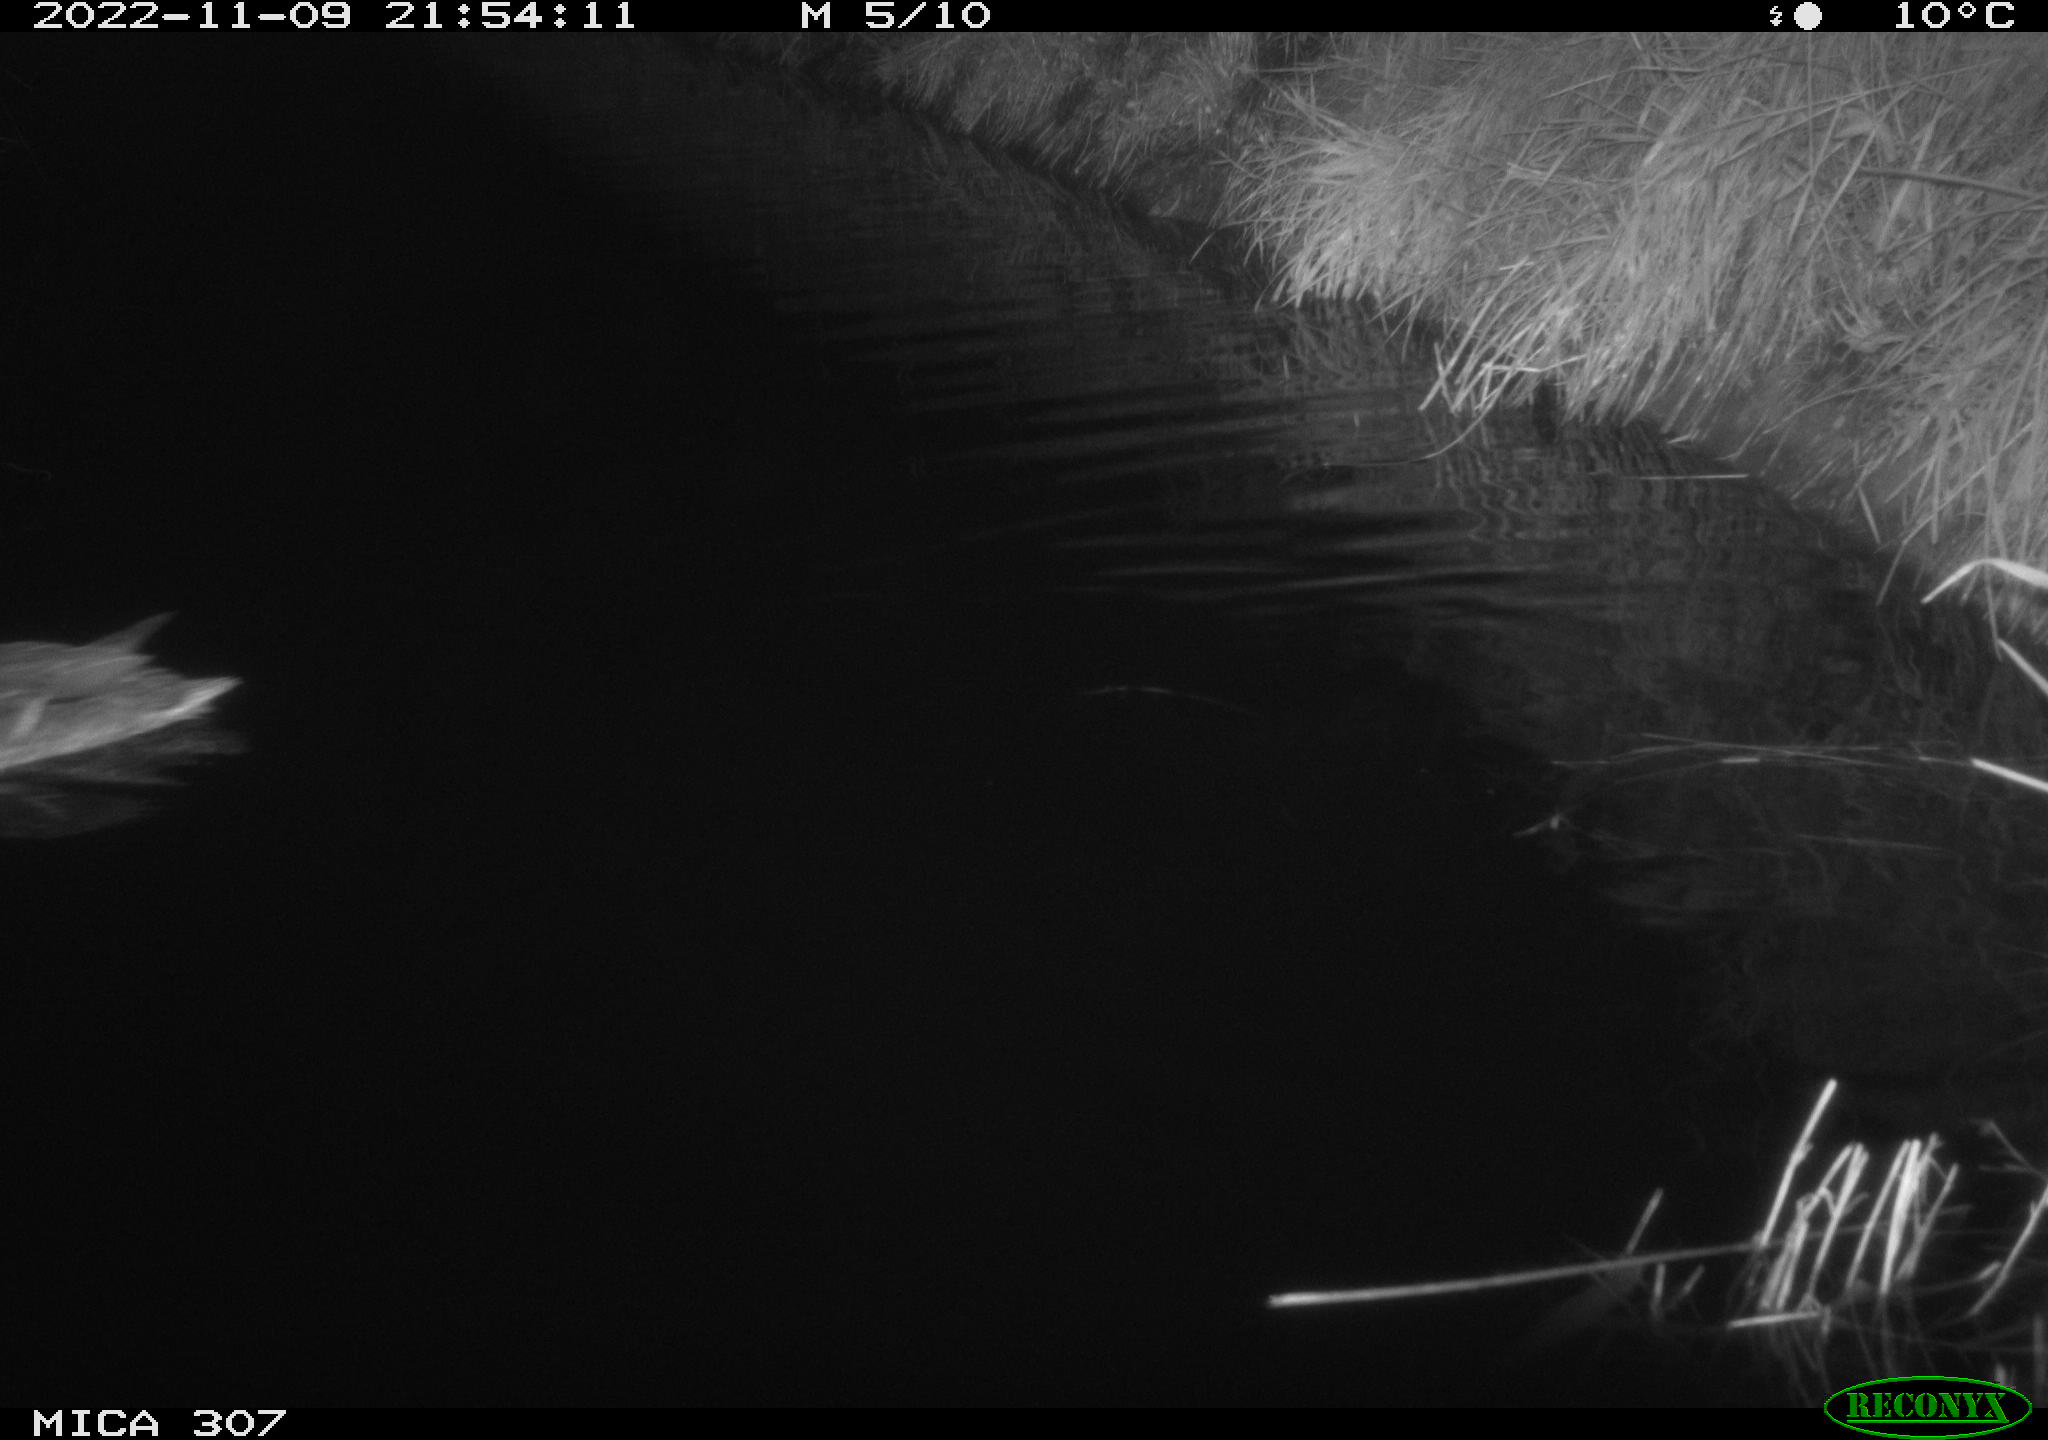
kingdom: Animalia
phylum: Chordata
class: Aves
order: Anseriformes
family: Anatidae
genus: Anas
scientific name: Anas
